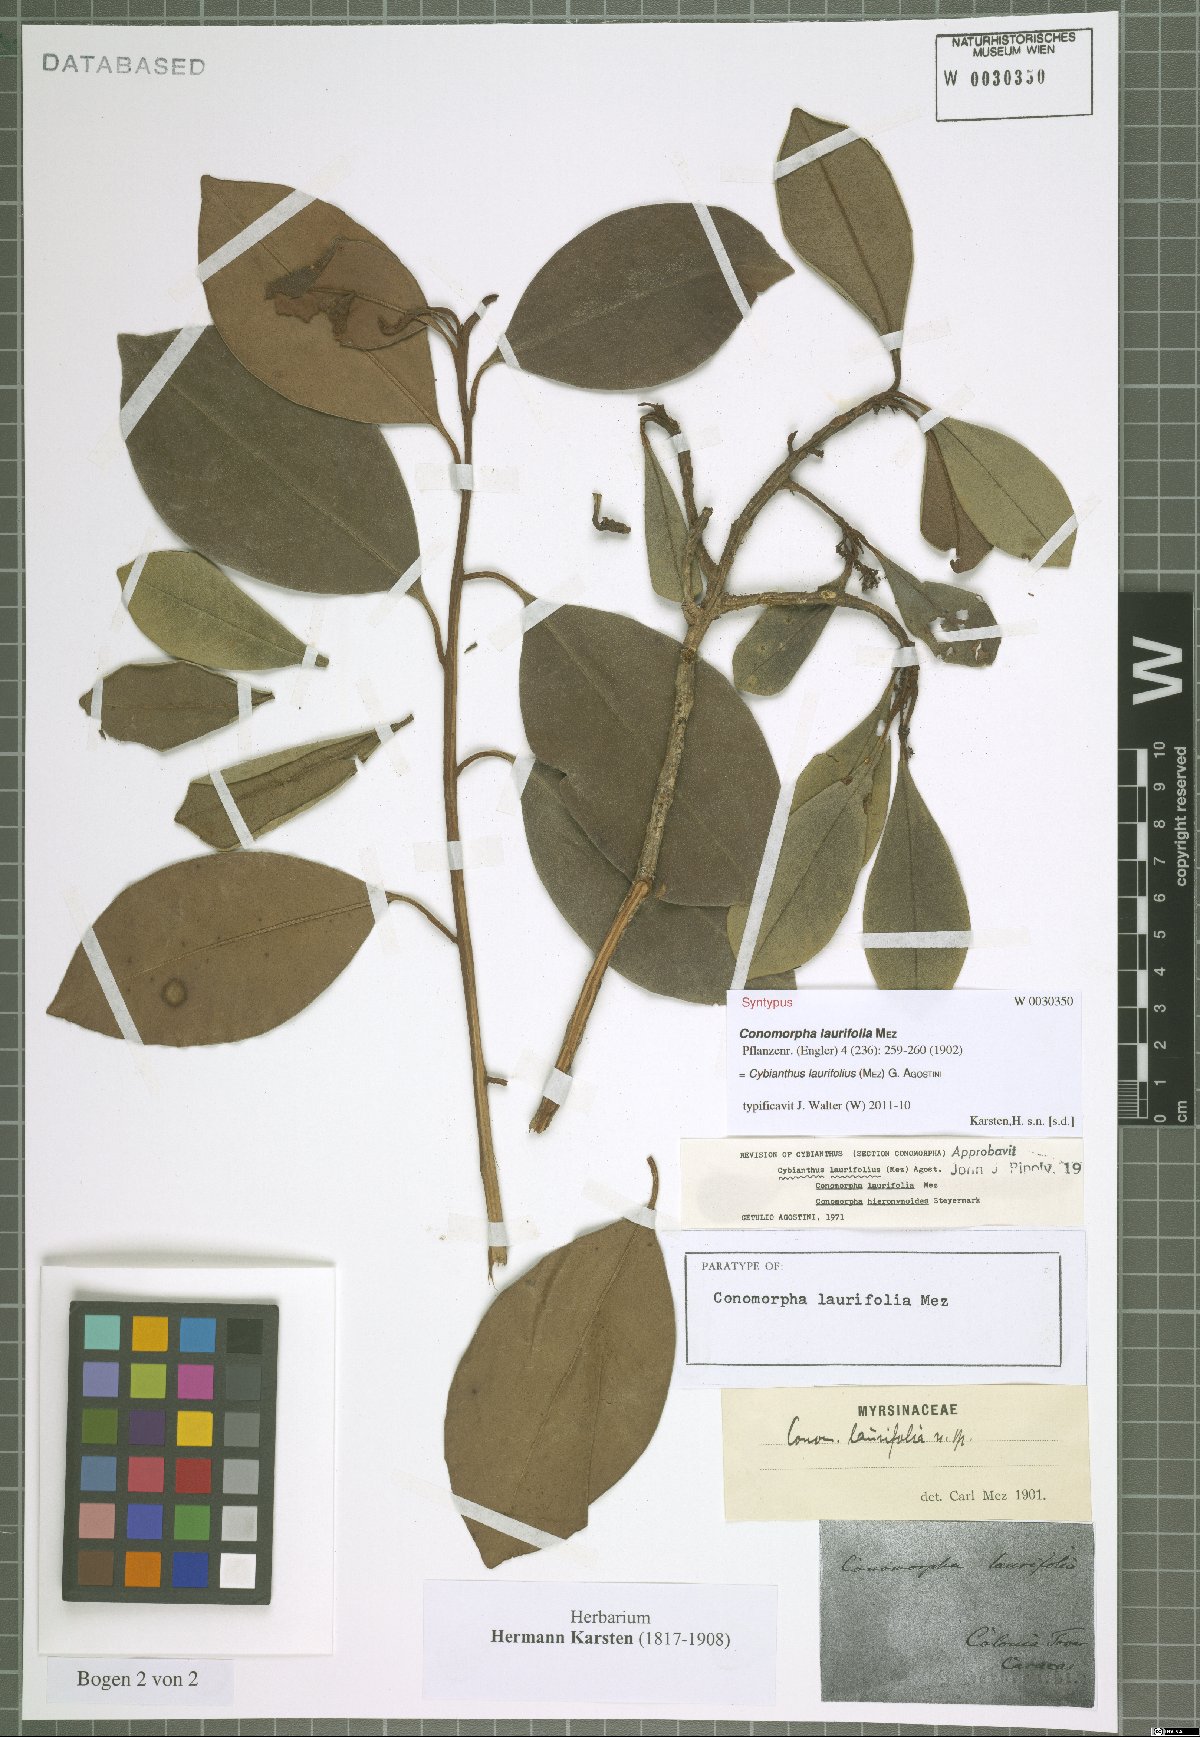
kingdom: Plantae
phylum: Tracheophyta
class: Magnoliopsida
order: Ericales
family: Primulaceae
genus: Cybianthus
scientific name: Cybianthus laurifolius
